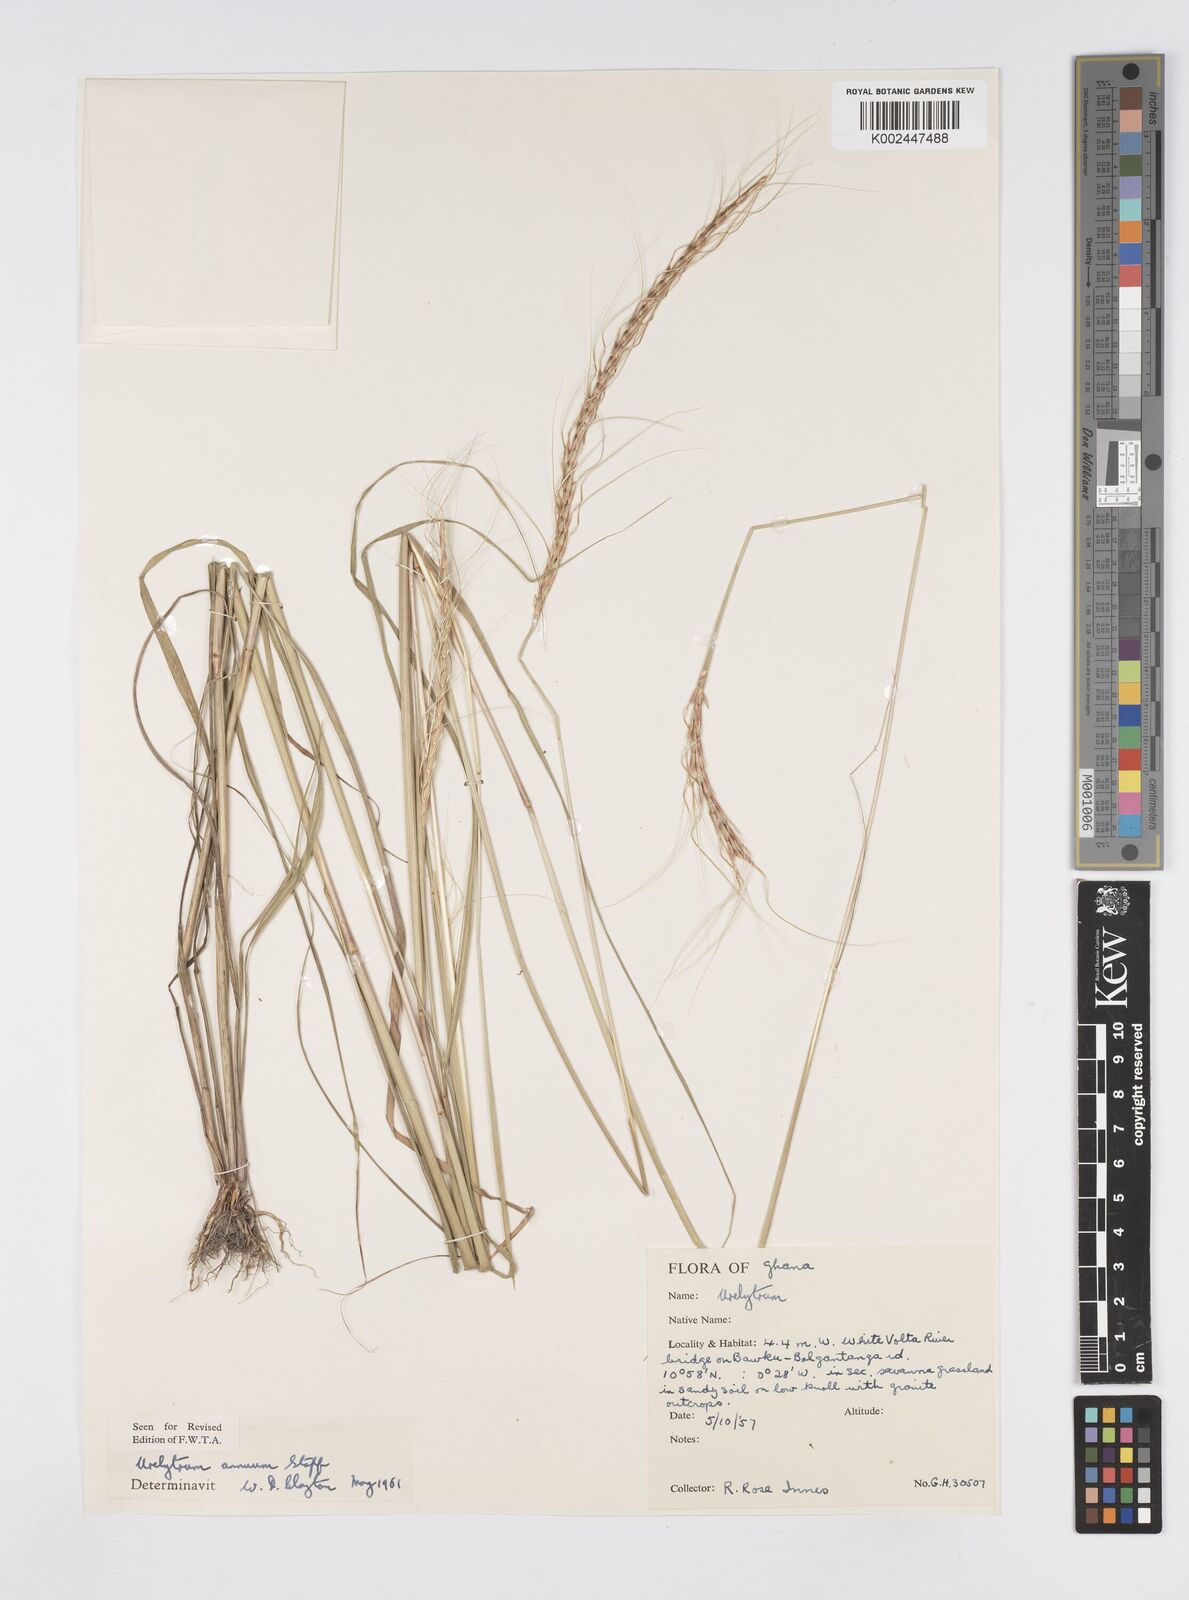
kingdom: Plantae
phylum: Tracheophyta
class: Liliopsida
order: Poales
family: Poaceae
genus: Urelytrum
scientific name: Urelytrum annuum
